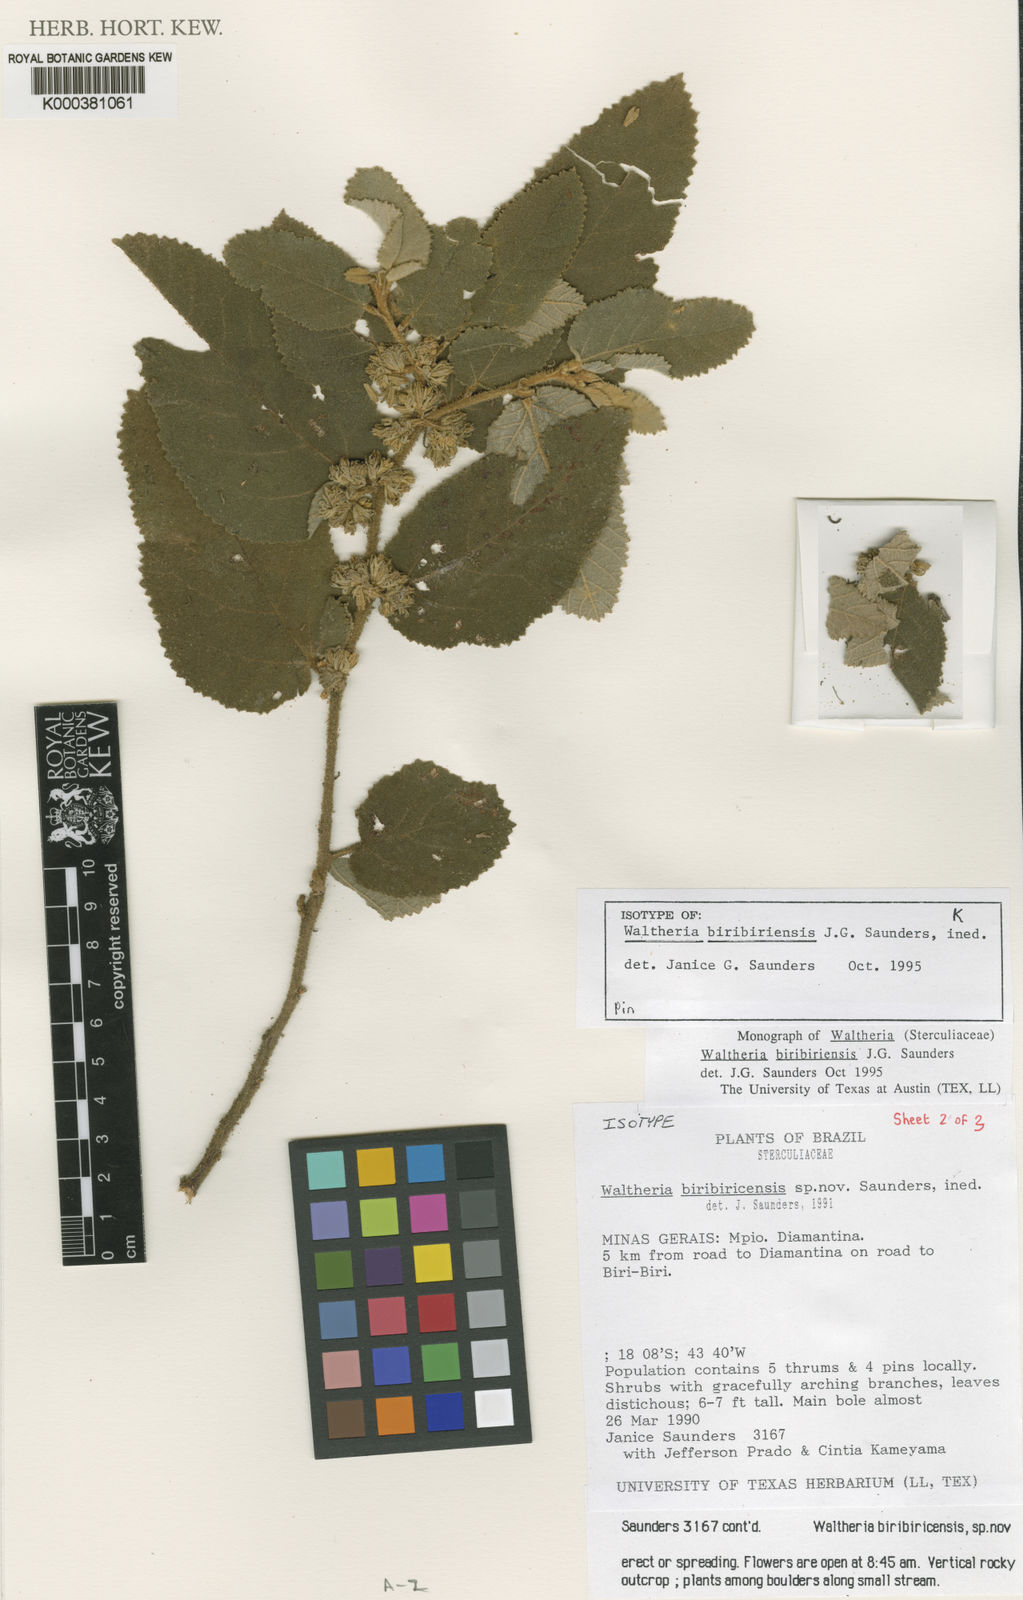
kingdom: Plantae
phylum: Tracheophyta
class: Magnoliopsida
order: Malvales
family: Malvaceae
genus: Waltheria
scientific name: Waltheria
